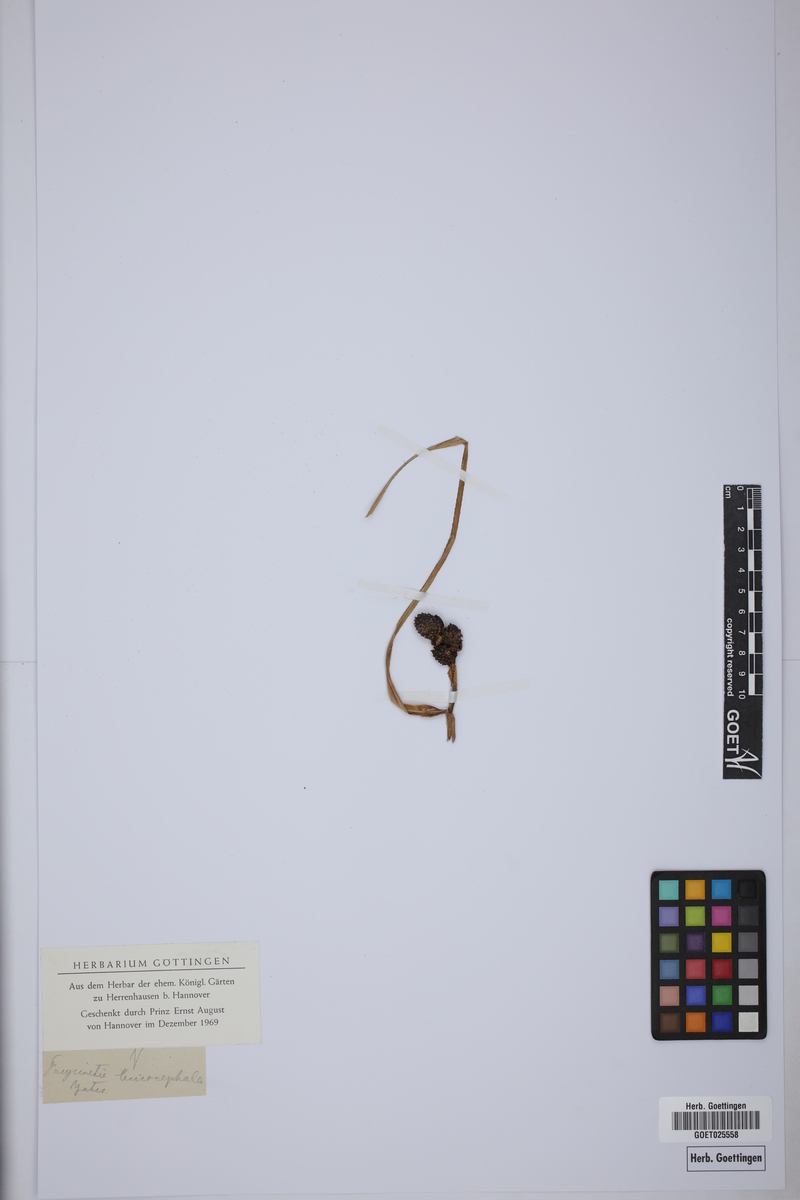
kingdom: Plantae
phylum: Tracheophyta
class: Liliopsida
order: Pandanales
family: Pandanaceae
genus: Freycinetia
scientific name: Freycinetia
